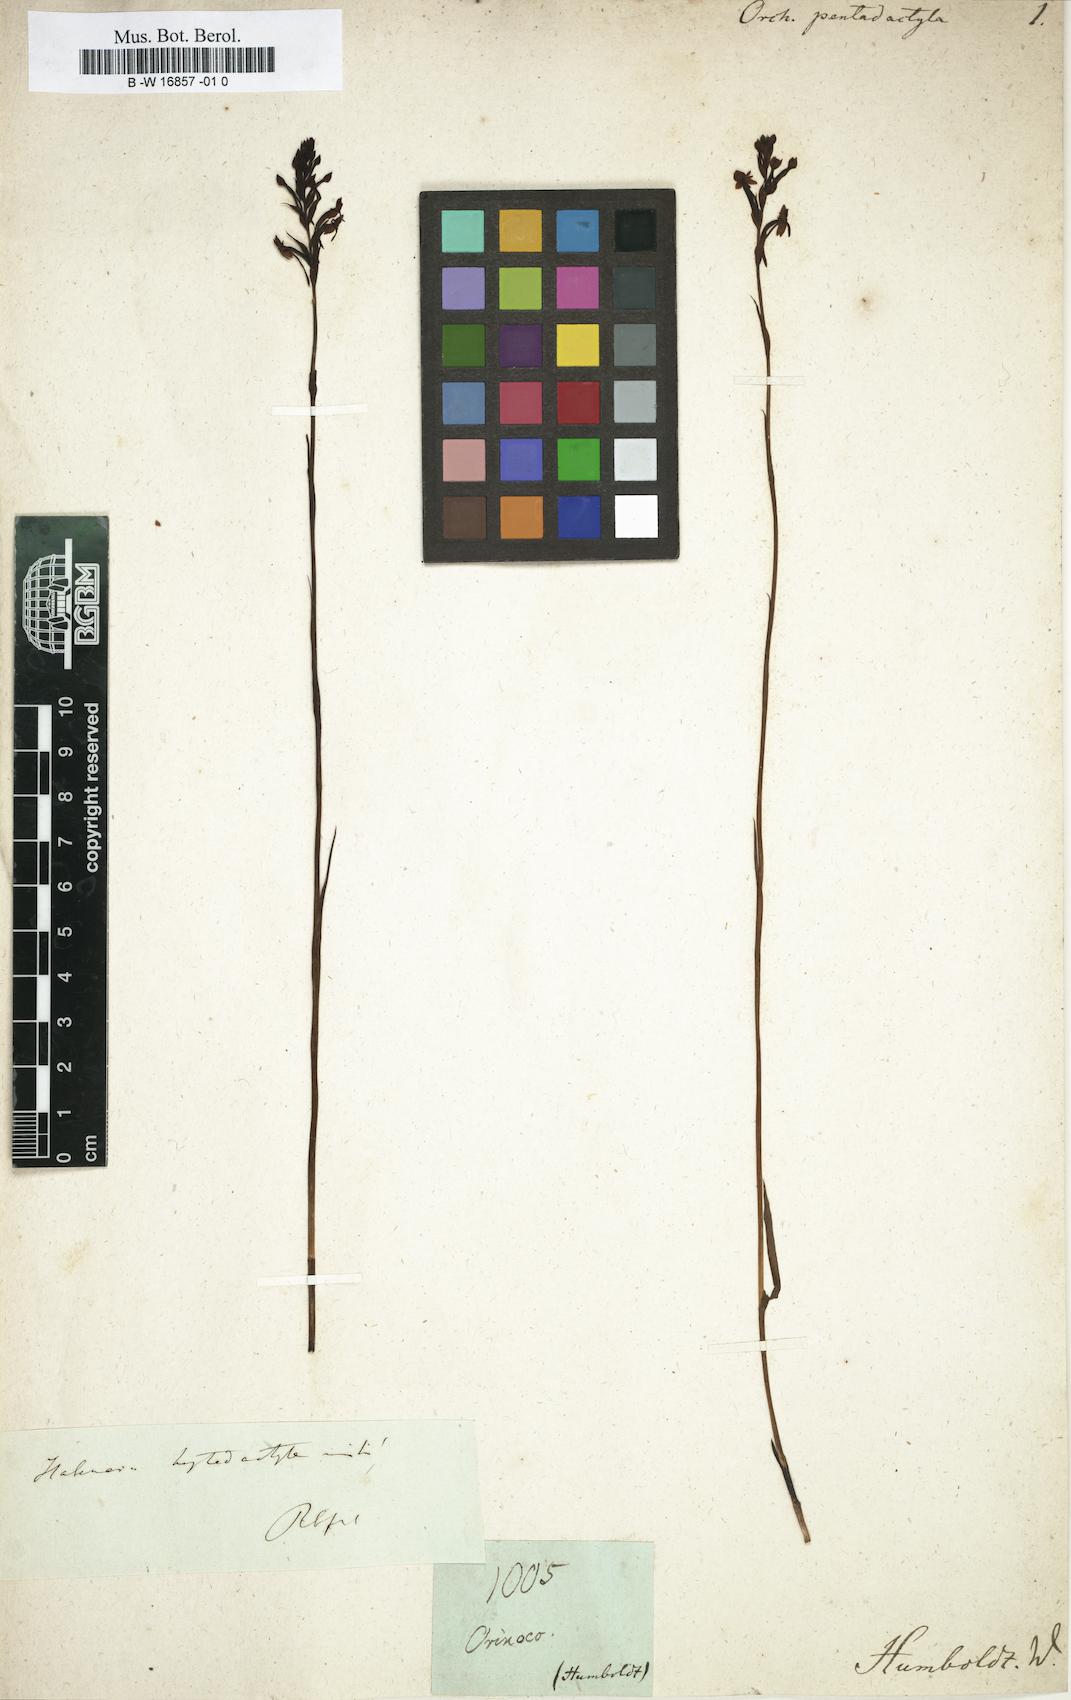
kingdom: Plantae
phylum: Tracheophyta
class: Liliopsida
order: Asparagales
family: Orchidaceae
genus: Orchis
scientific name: Orchis
